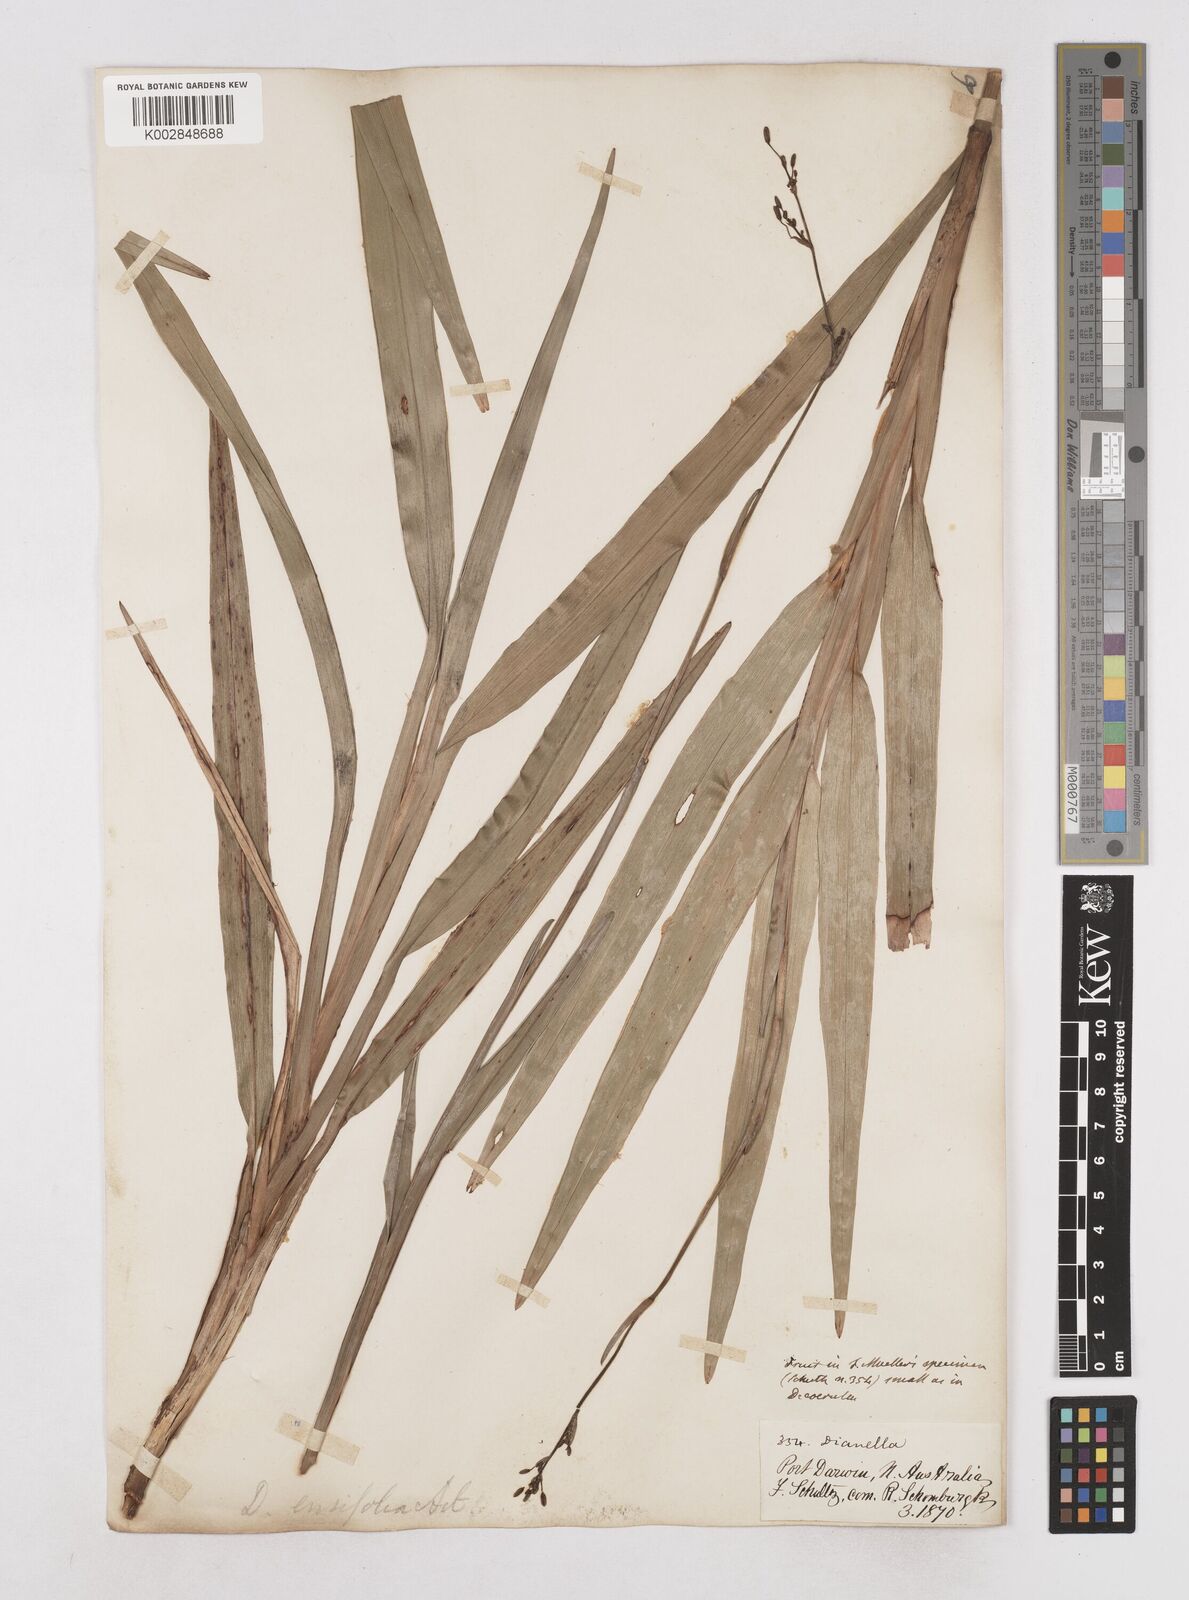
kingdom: Plantae
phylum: Tracheophyta
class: Liliopsida
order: Asparagales
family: Asphodelaceae
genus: Dianella
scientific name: Dianella ensifolia
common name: New zealand lilyplant
